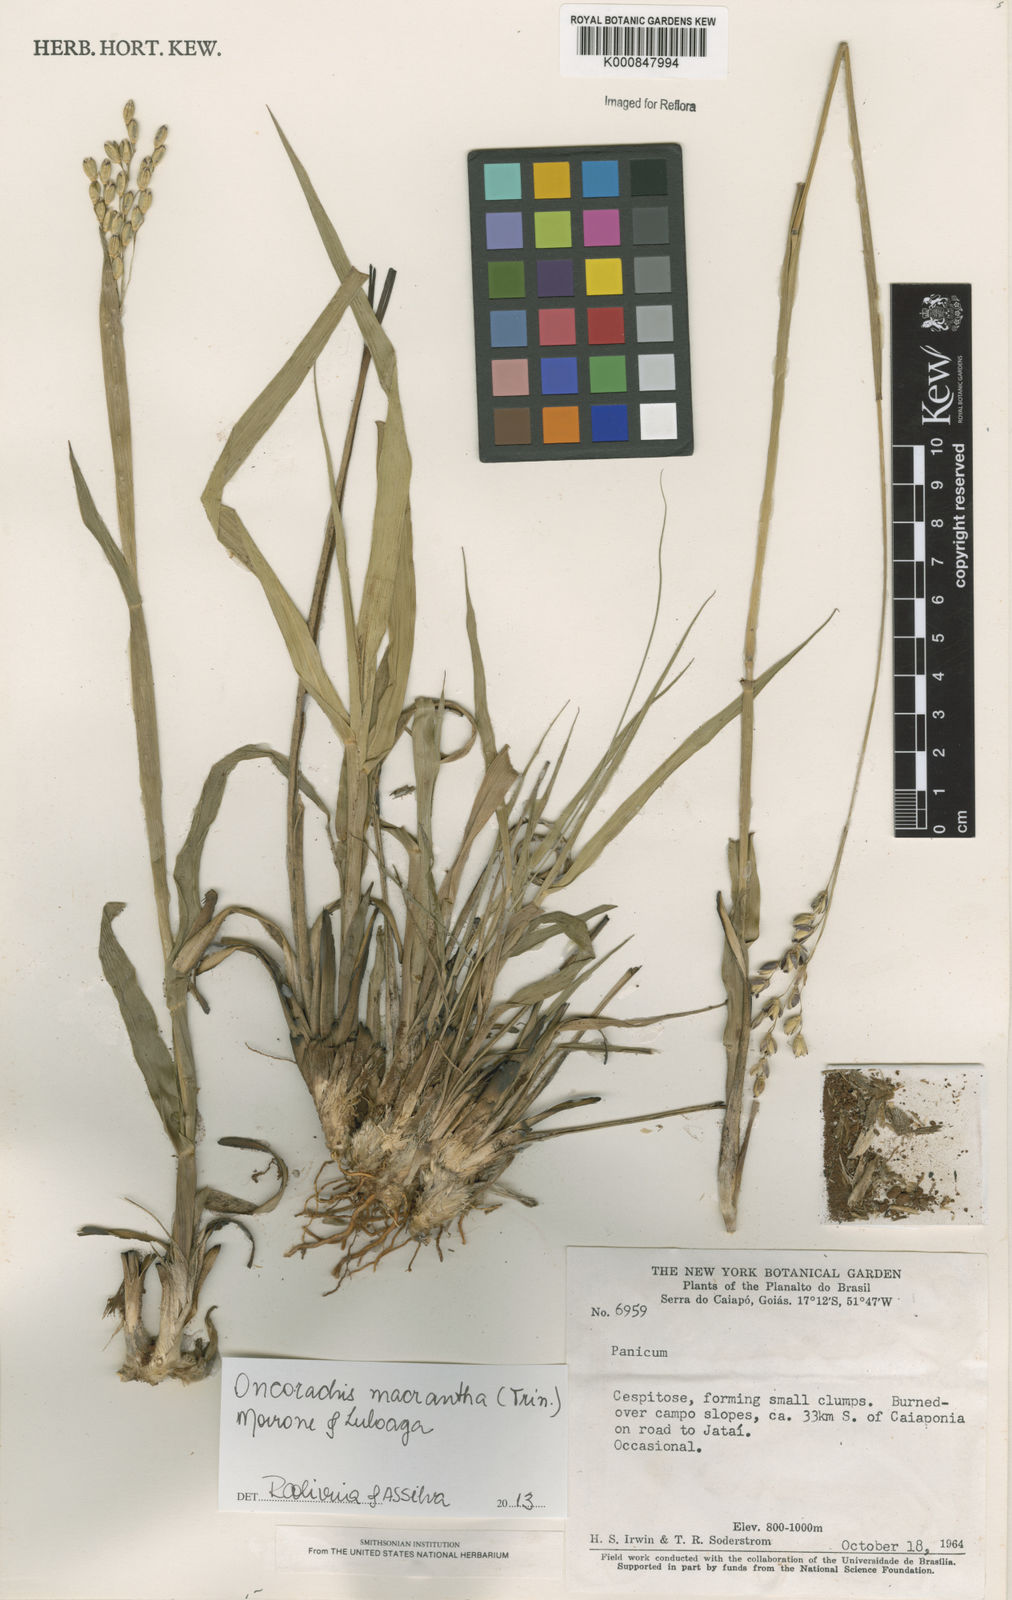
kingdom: Plantae
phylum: Tracheophyta
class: Liliopsida
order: Poales
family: Poaceae
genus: Oncorachis
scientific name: Oncorachis macrantha
